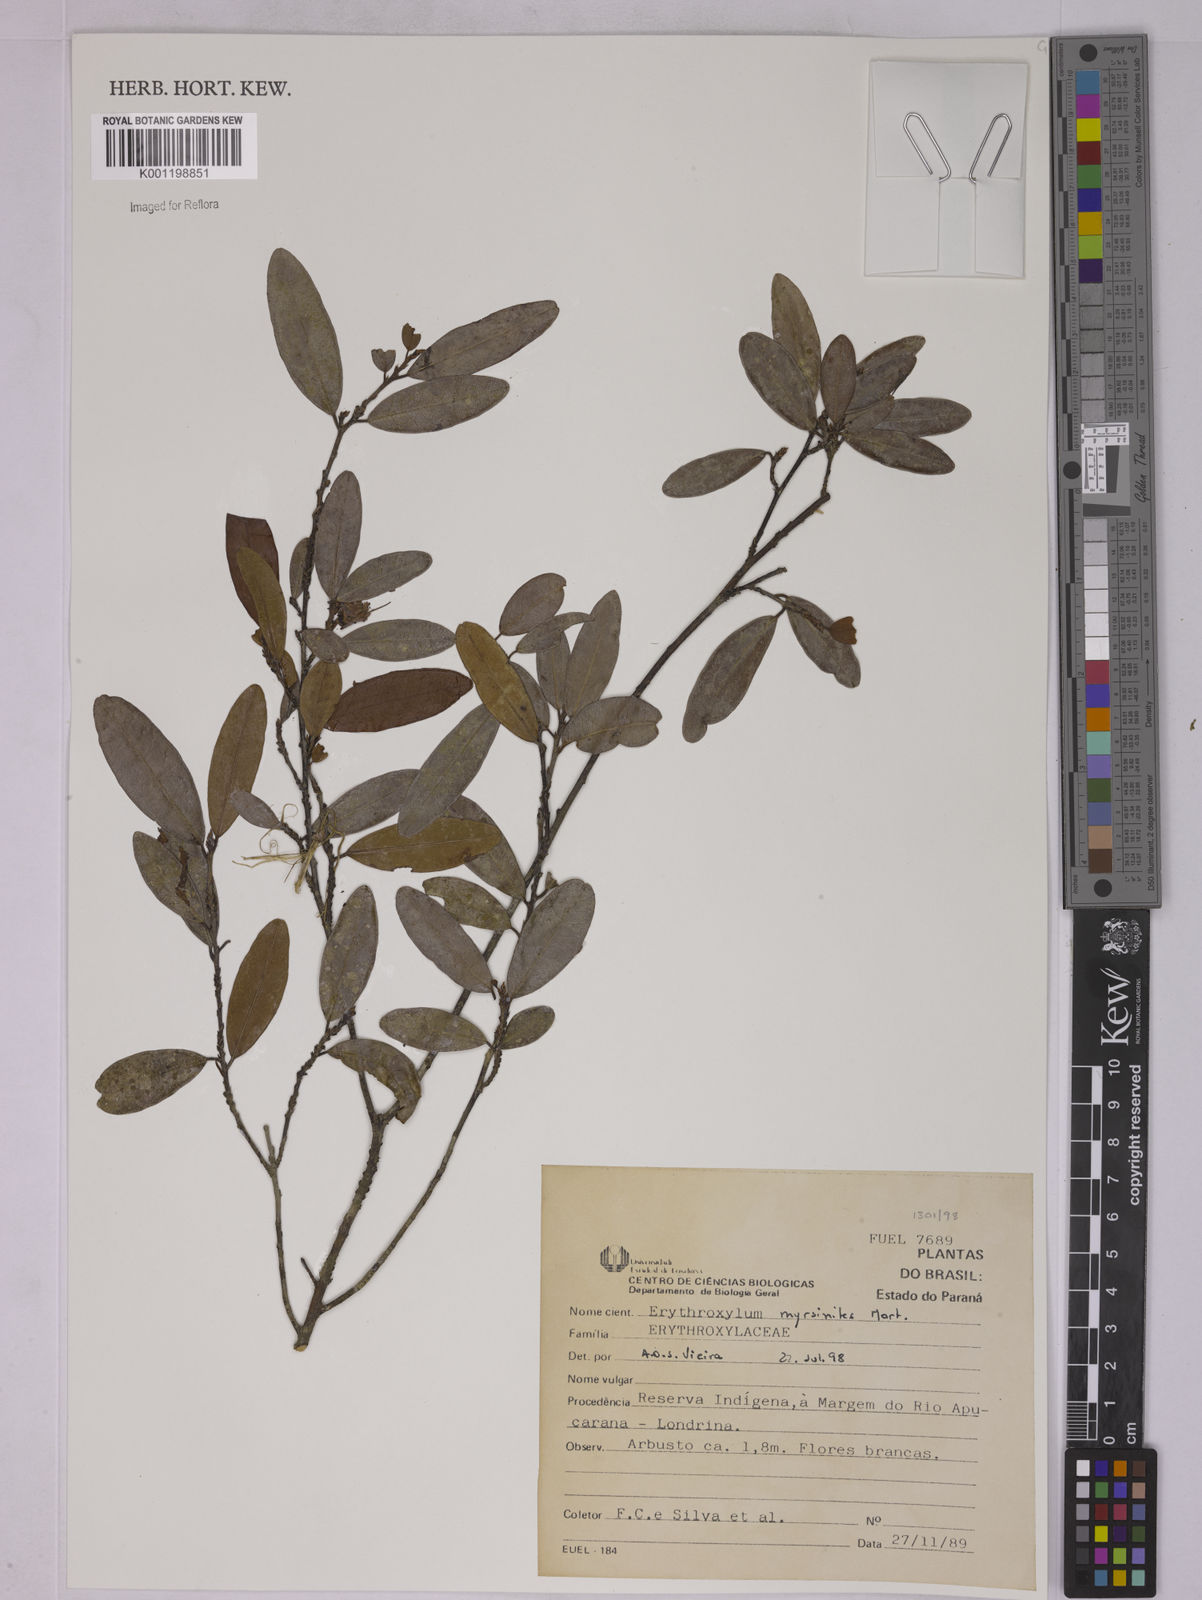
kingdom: Plantae
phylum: Tracheophyta
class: Magnoliopsida
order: Malpighiales
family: Erythroxylaceae
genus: Erythroxylum
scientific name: Erythroxylum myrsinites
